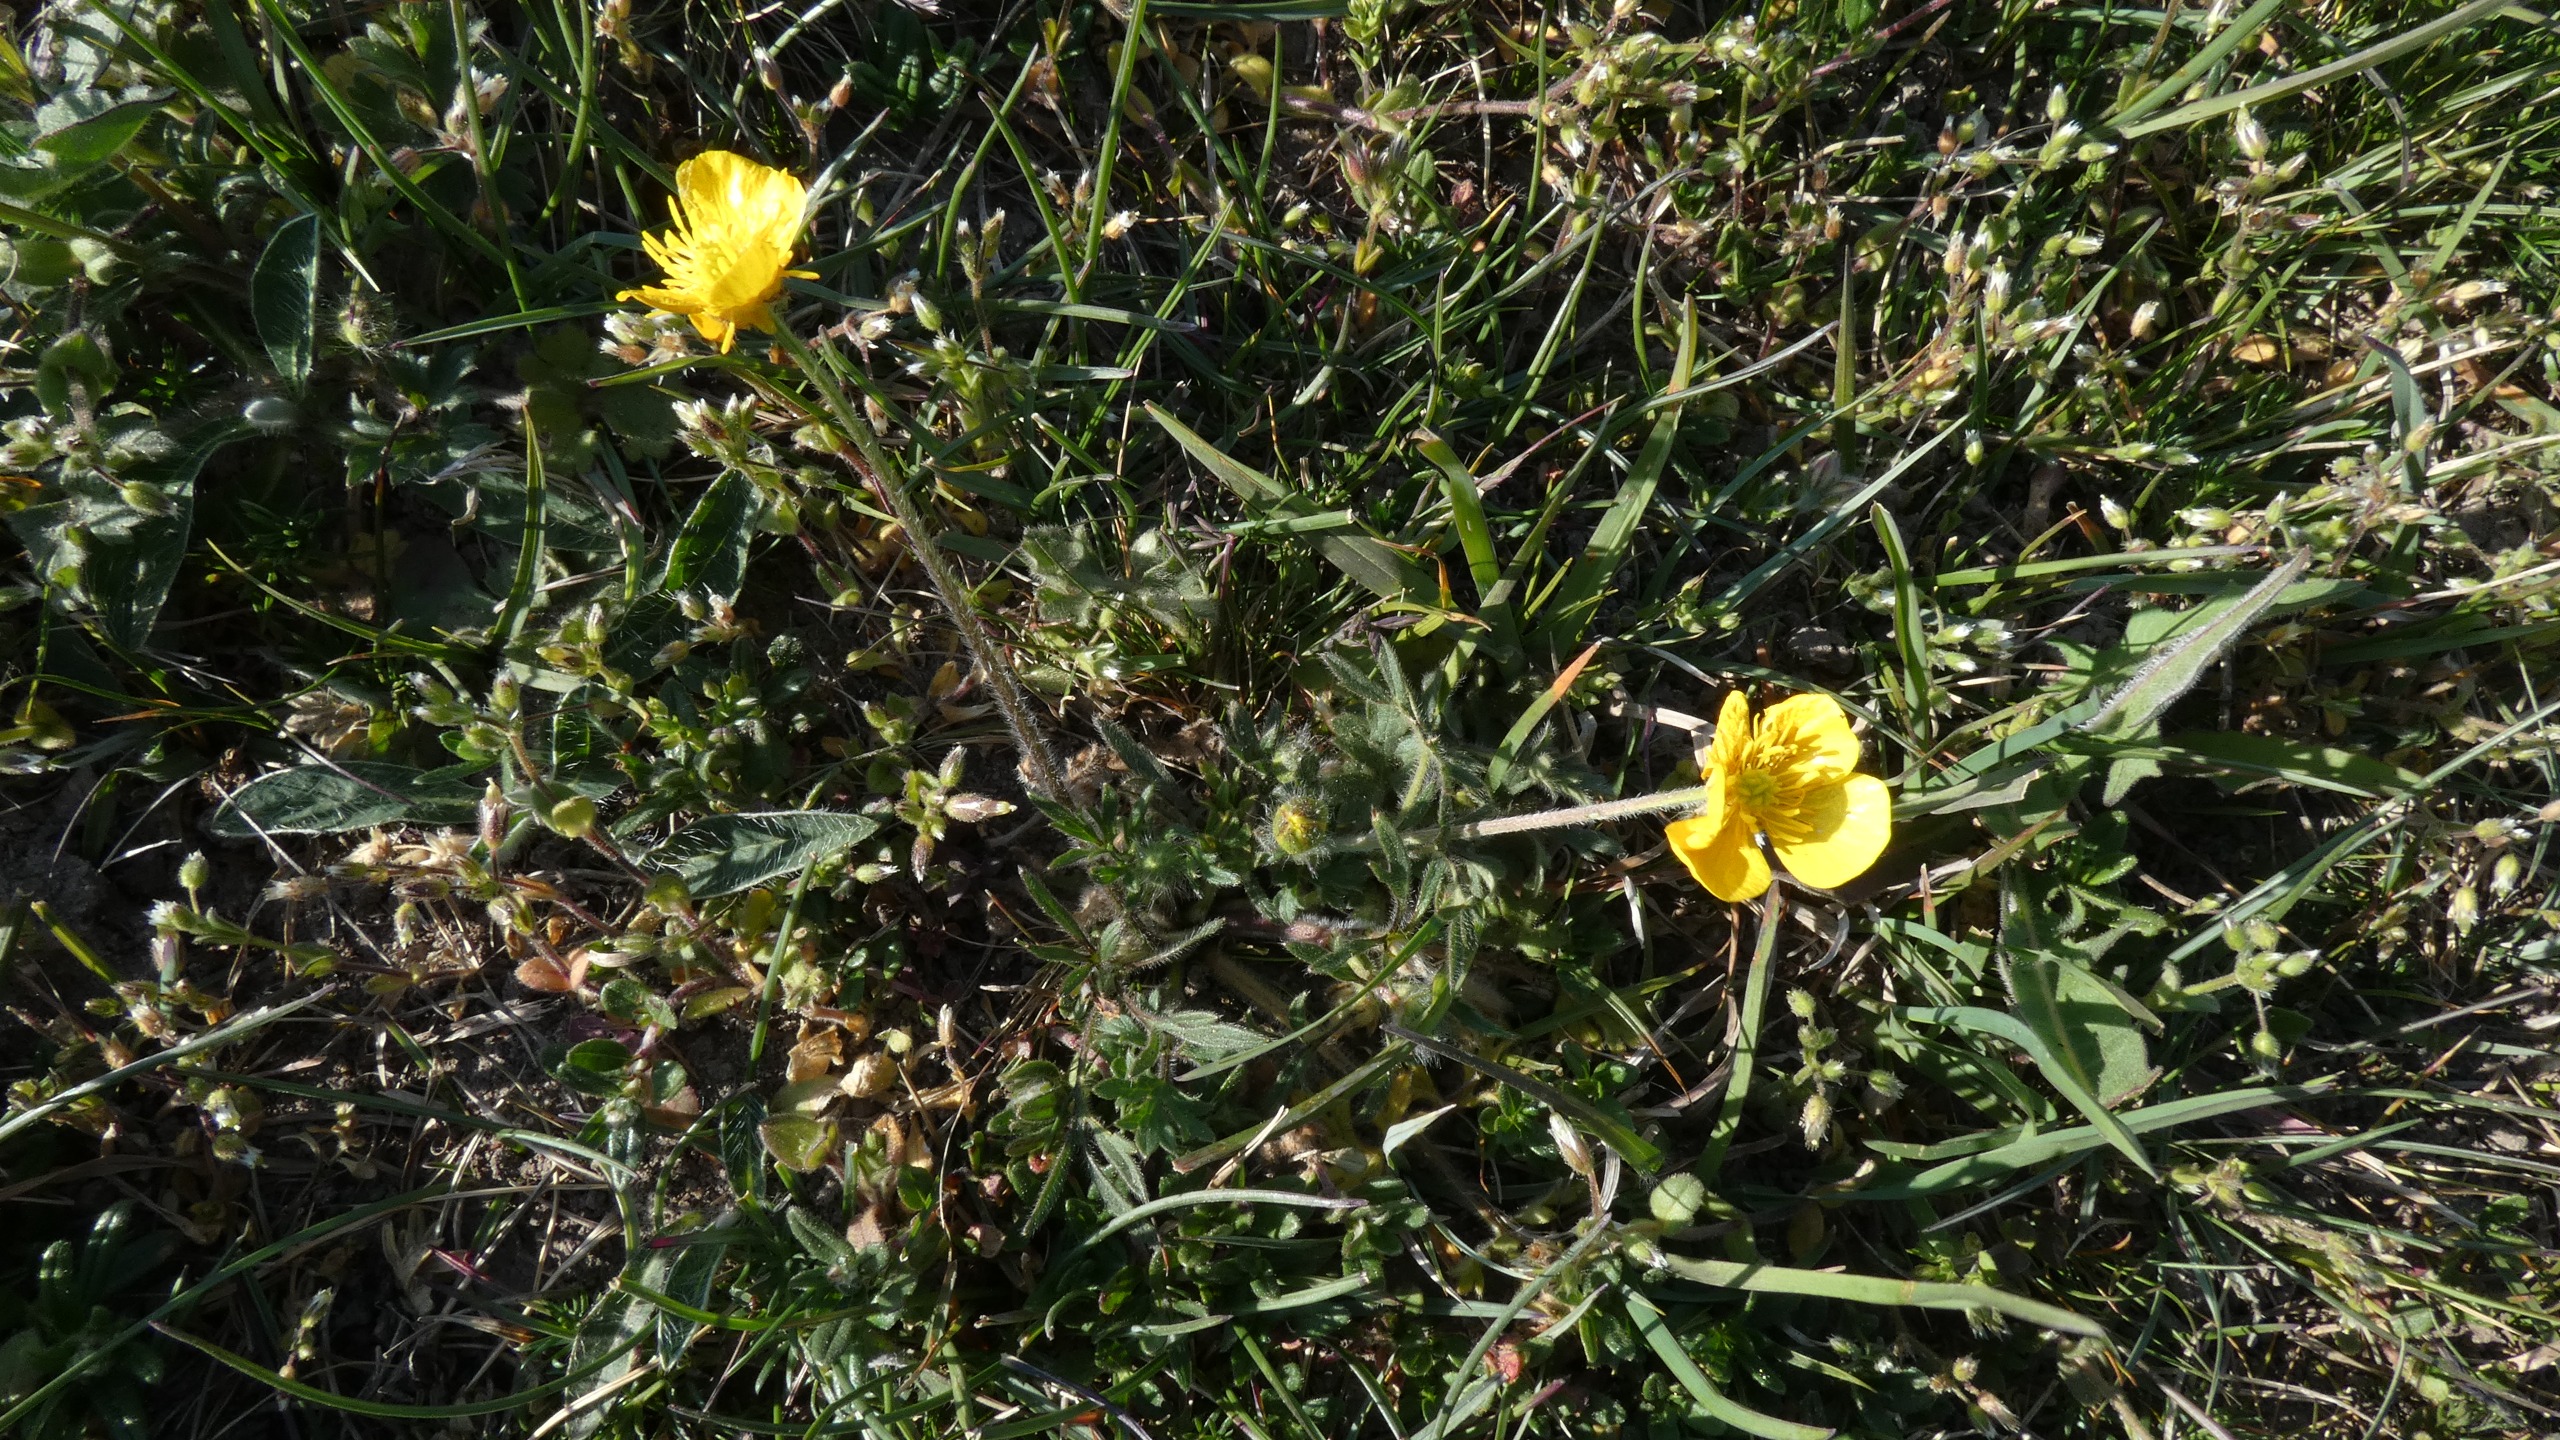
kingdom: Plantae
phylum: Tracheophyta
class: Magnoliopsida
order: Ranunculales
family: Ranunculaceae
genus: Ranunculus
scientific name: Ranunculus bulbosus
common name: Knold-ranunkel
